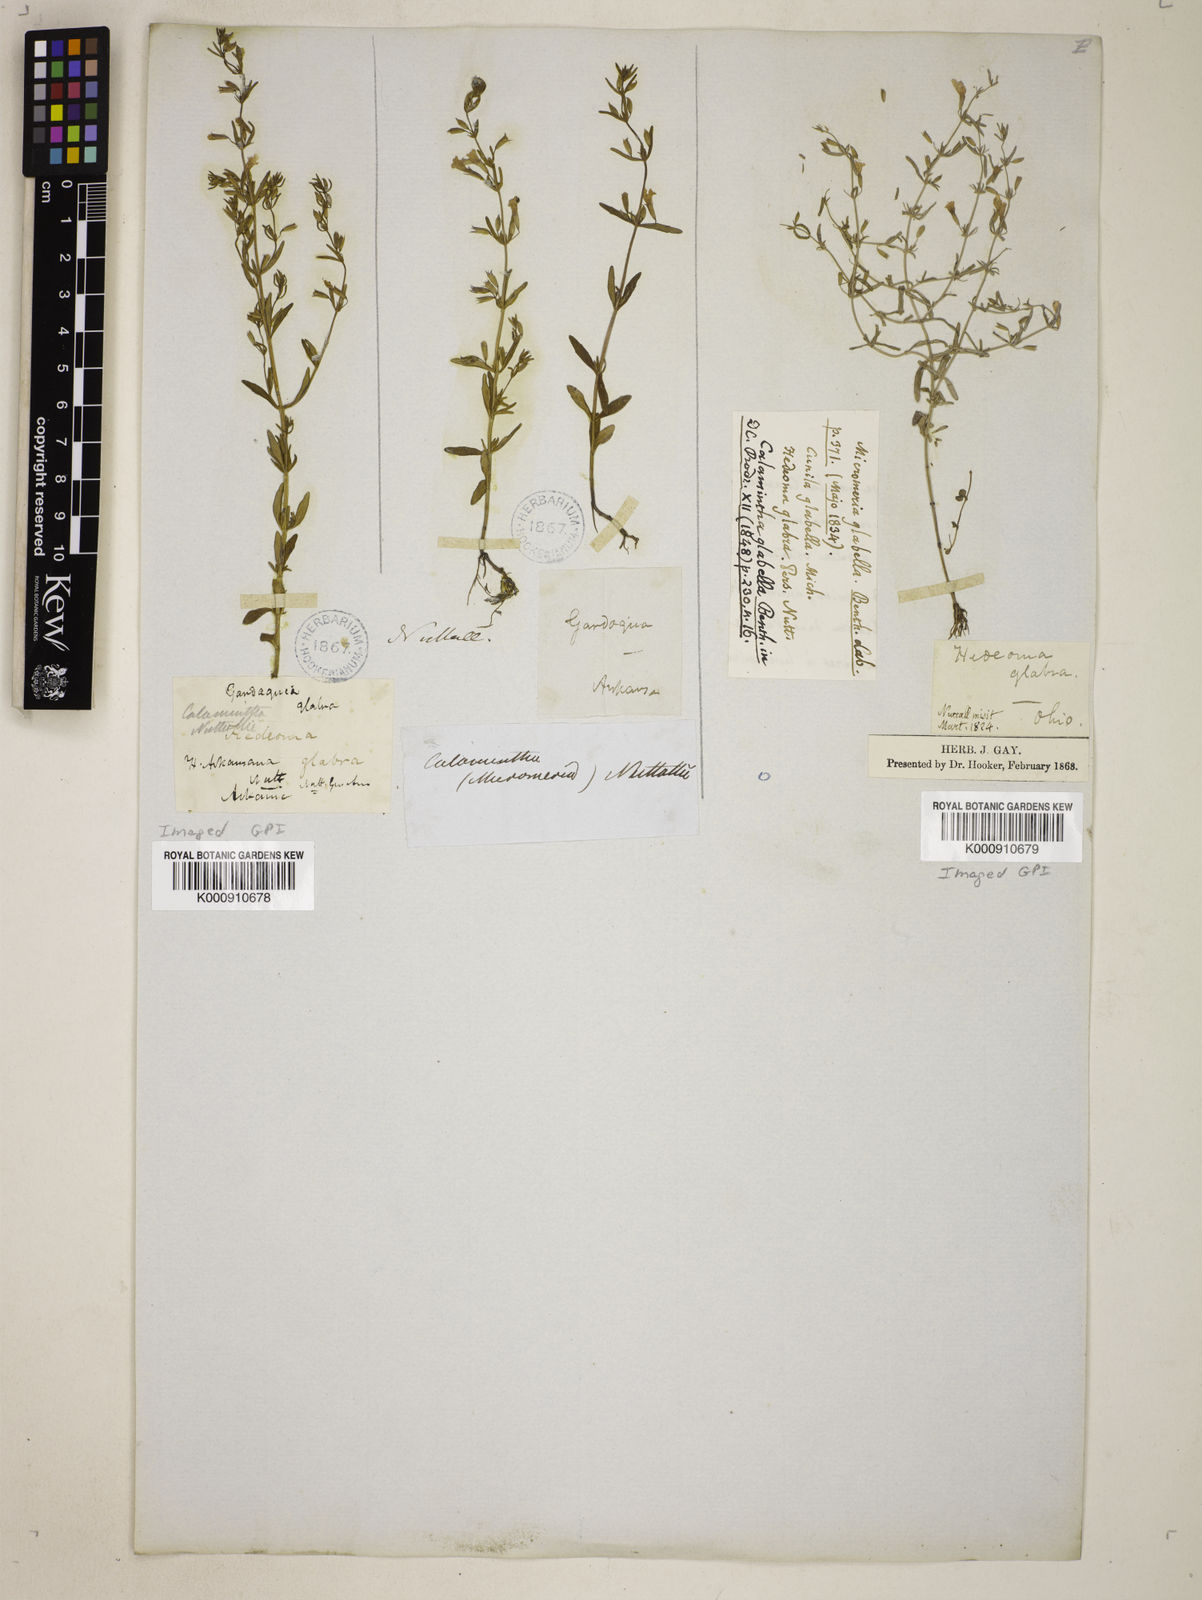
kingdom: Plantae
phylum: Tracheophyta
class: Magnoliopsida
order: Lamiales
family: Lamiaceae
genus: Clinopodium
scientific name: Clinopodium glabellum
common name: Ozark calamint
